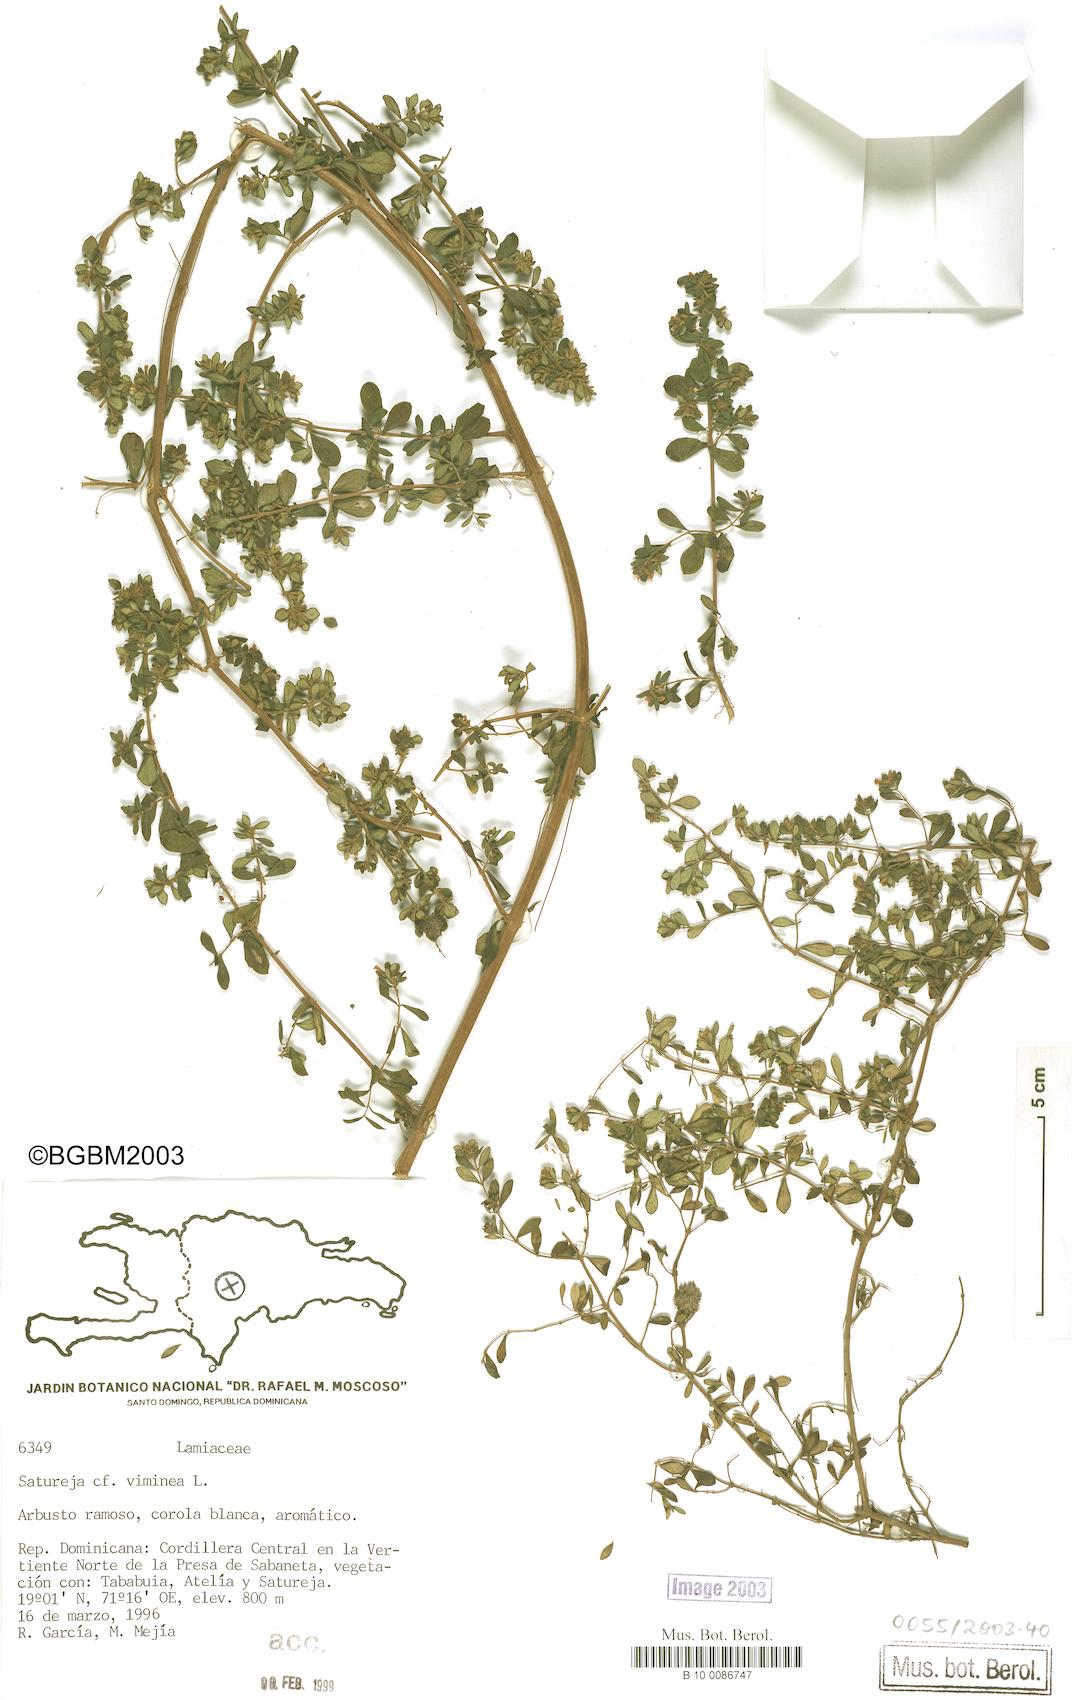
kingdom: Plantae
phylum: Tracheophyta
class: Magnoliopsida
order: Lamiales
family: Lamiaceae
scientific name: Lamiaceae
